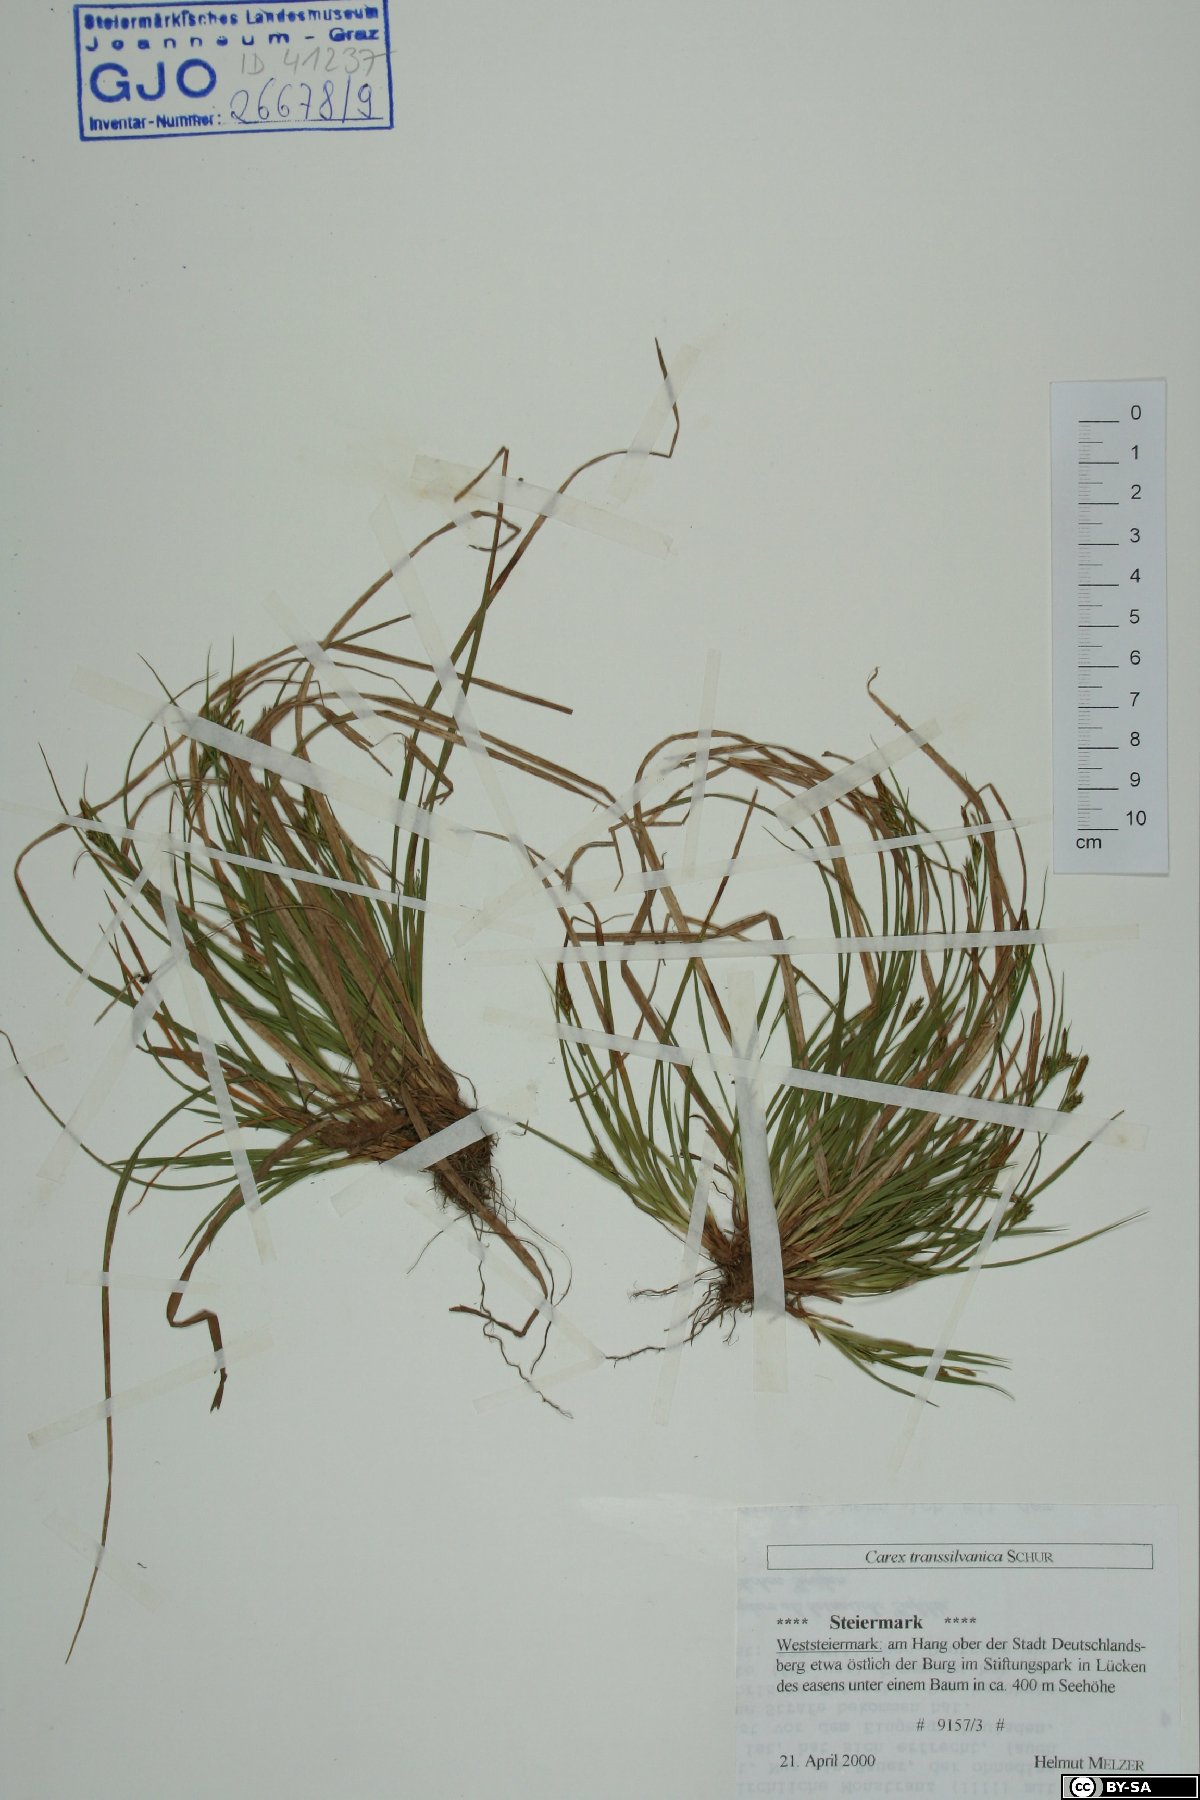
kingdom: Plantae
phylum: Tracheophyta
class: Liliopsida
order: Poales
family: Cyperaceae
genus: Carex
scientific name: Carex depressa
